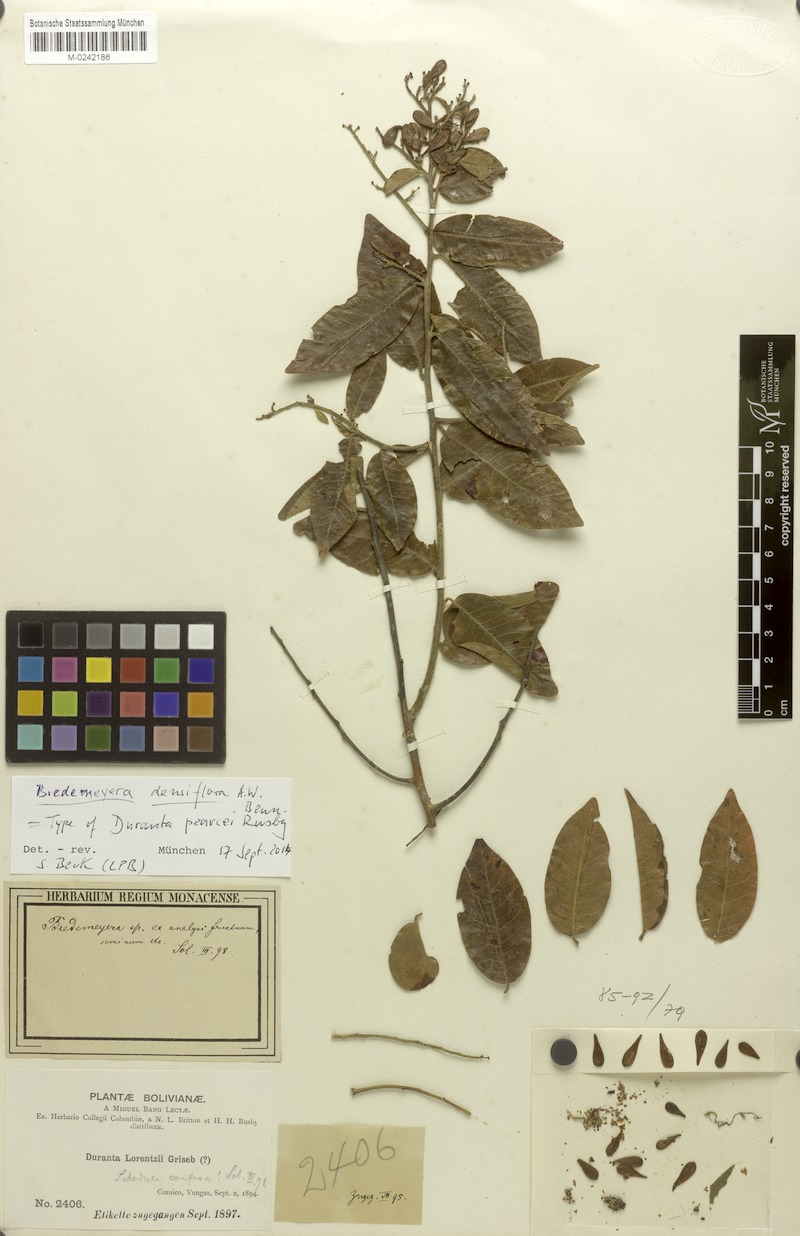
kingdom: Plantae
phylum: Tracheophyta
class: Magnoliopsida
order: Fabales
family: Polygalaceae
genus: Bredemeyera
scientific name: Bredemeyera densiflora
